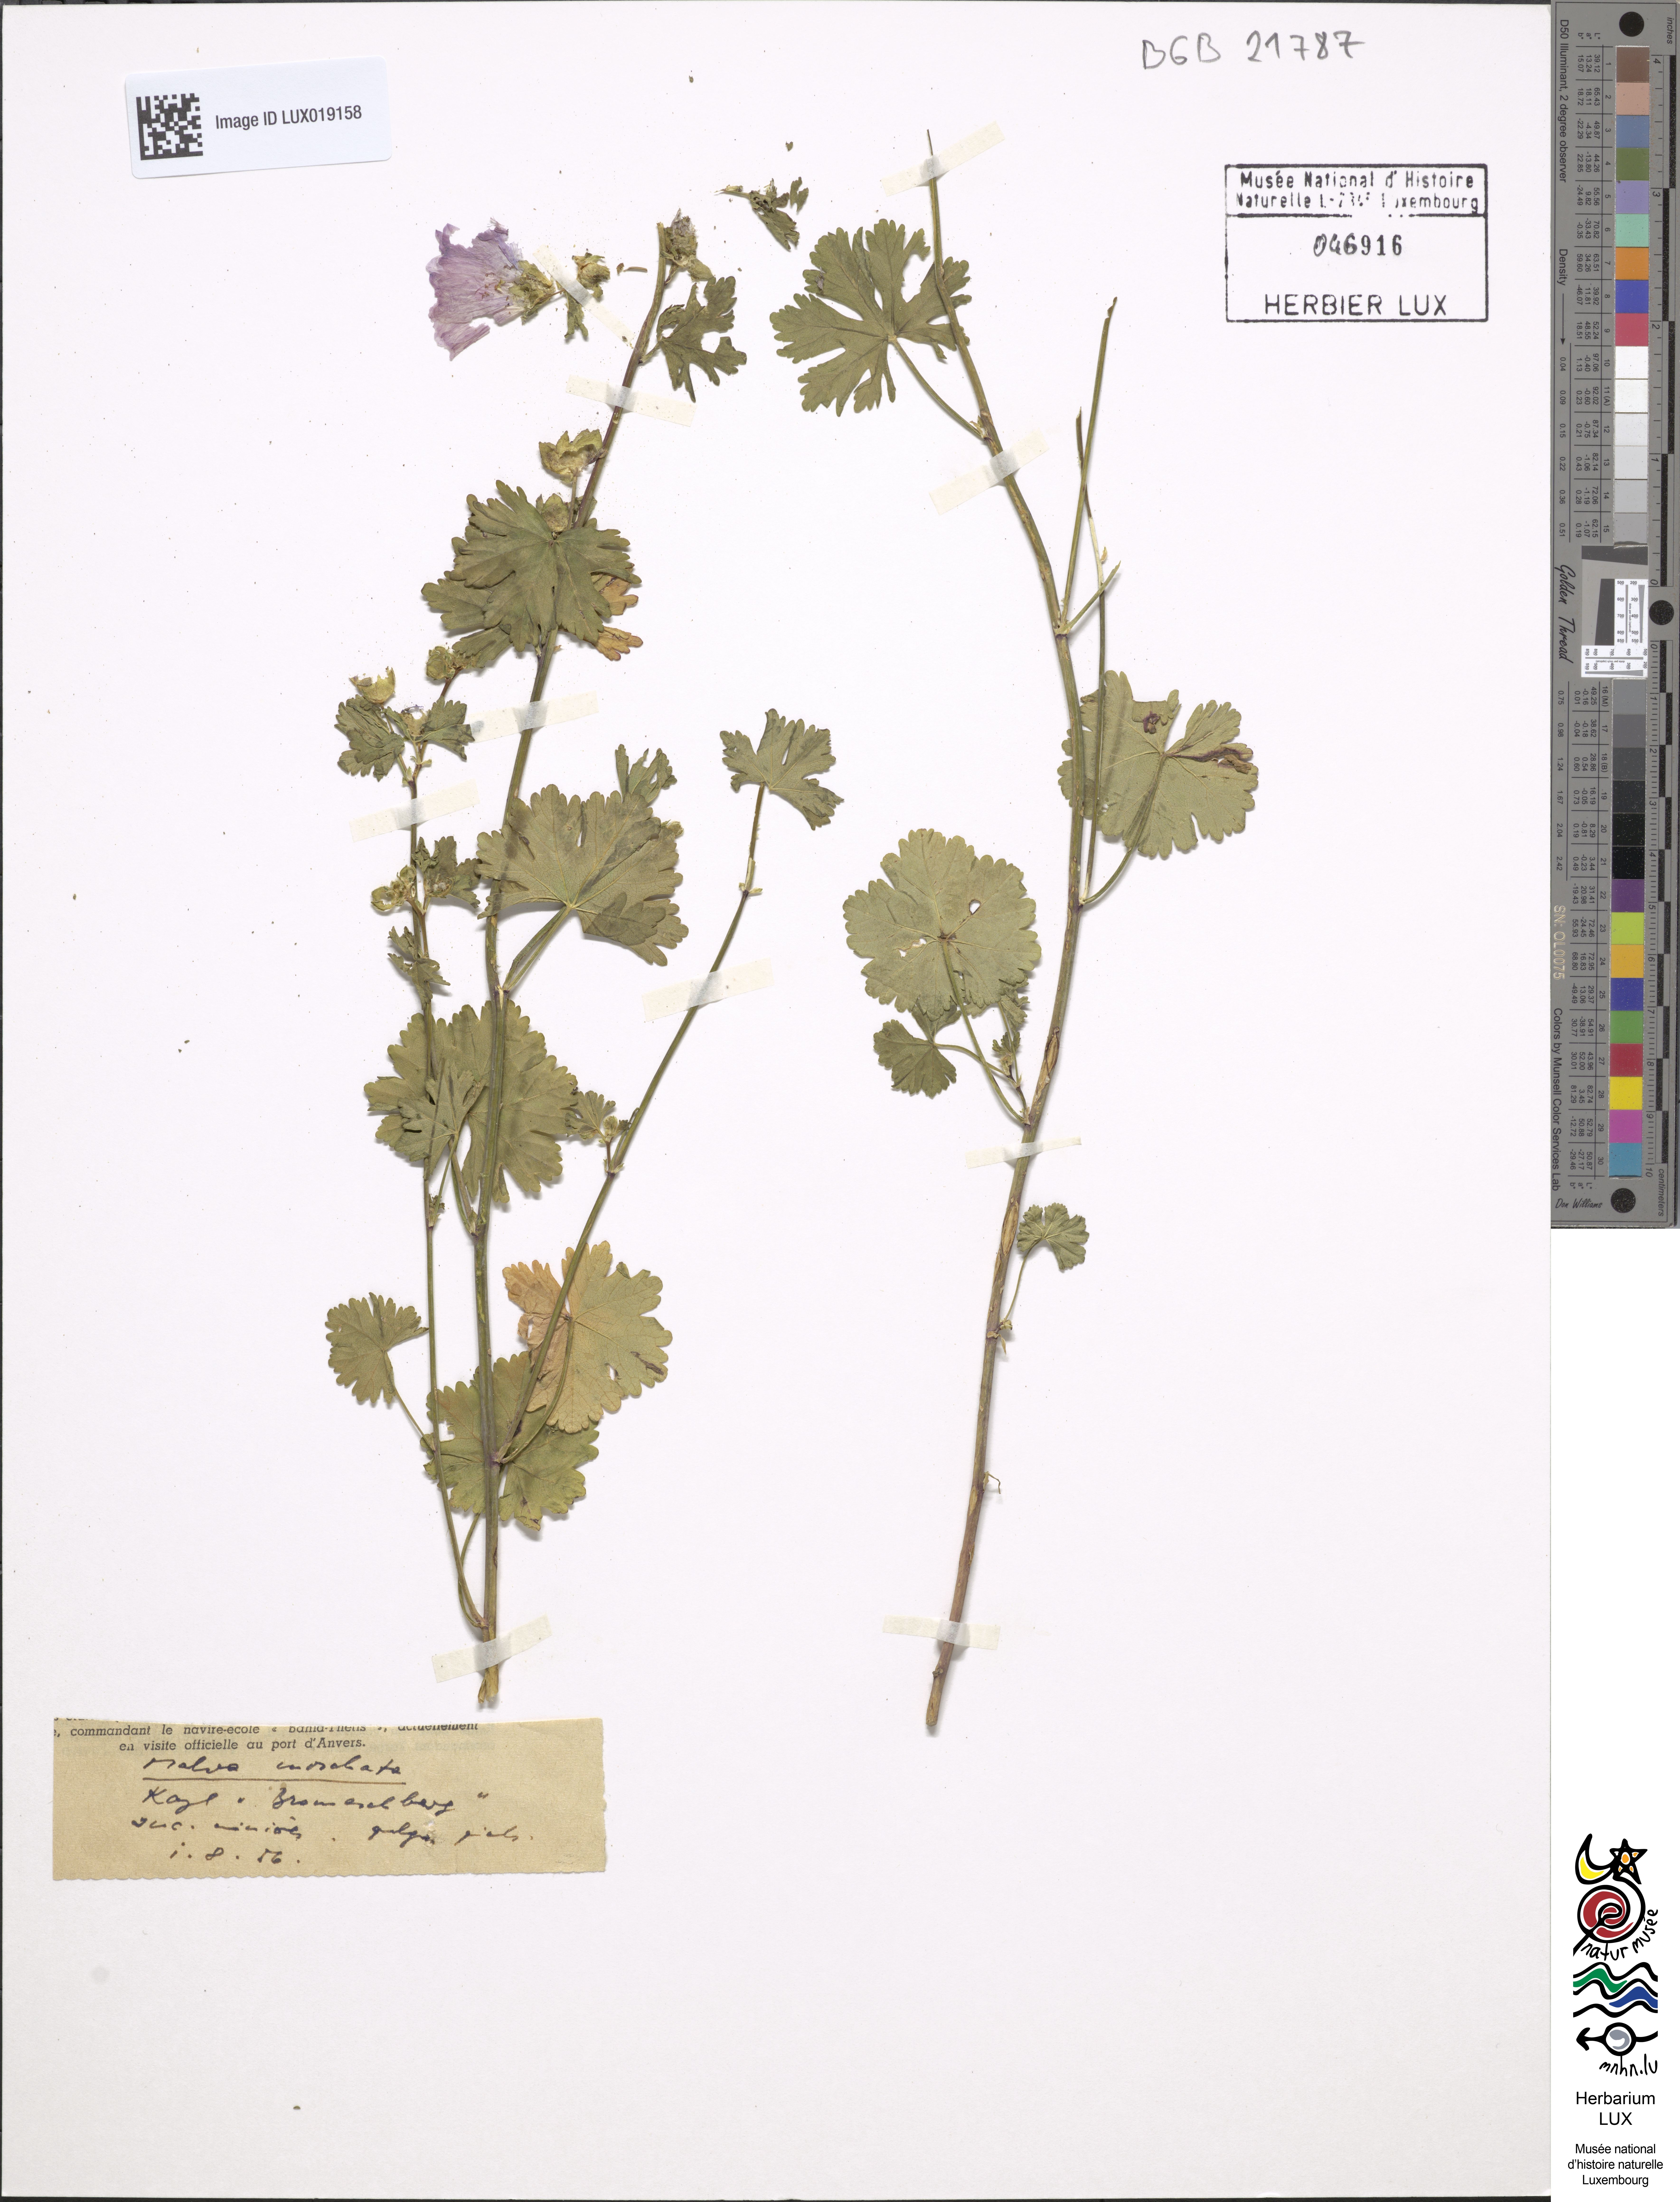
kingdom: Plantae
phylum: Tracheophyta
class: Magnoliopsida
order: Malvales
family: Malvaceae
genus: Malva
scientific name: Malva moschata
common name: Musk mallow
